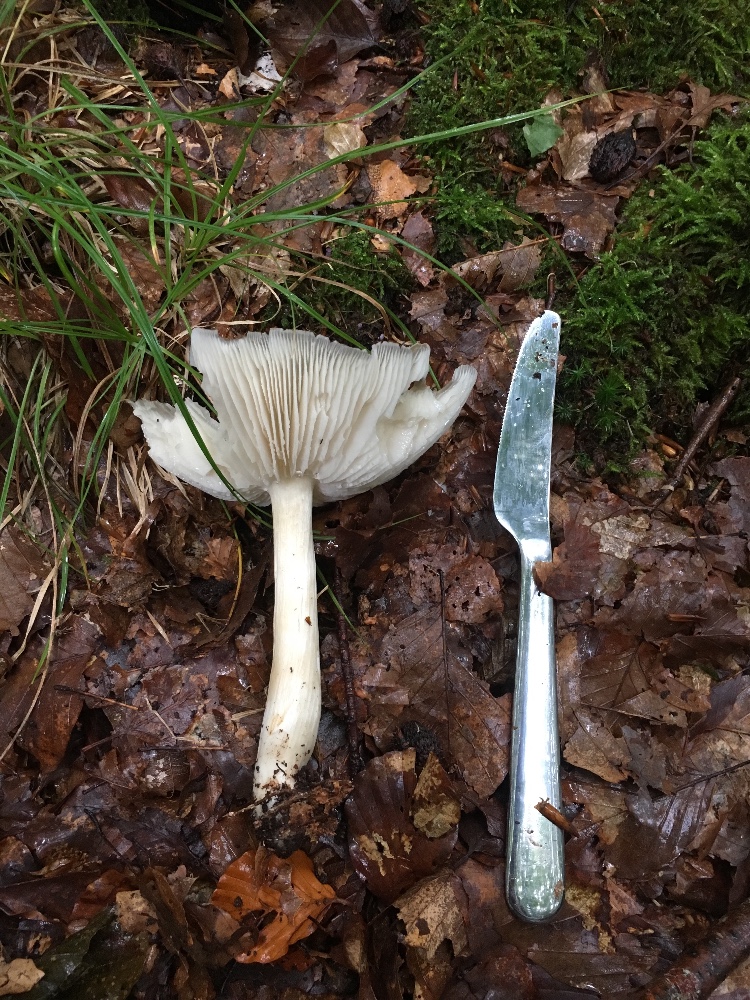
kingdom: Fungi
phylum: Basidiomycota
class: Agaricomycetes
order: Agaricales
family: Tricholomataceae
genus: Megacollybia
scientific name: Megacollybia platyphylla
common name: bredbladet væbnerhat
